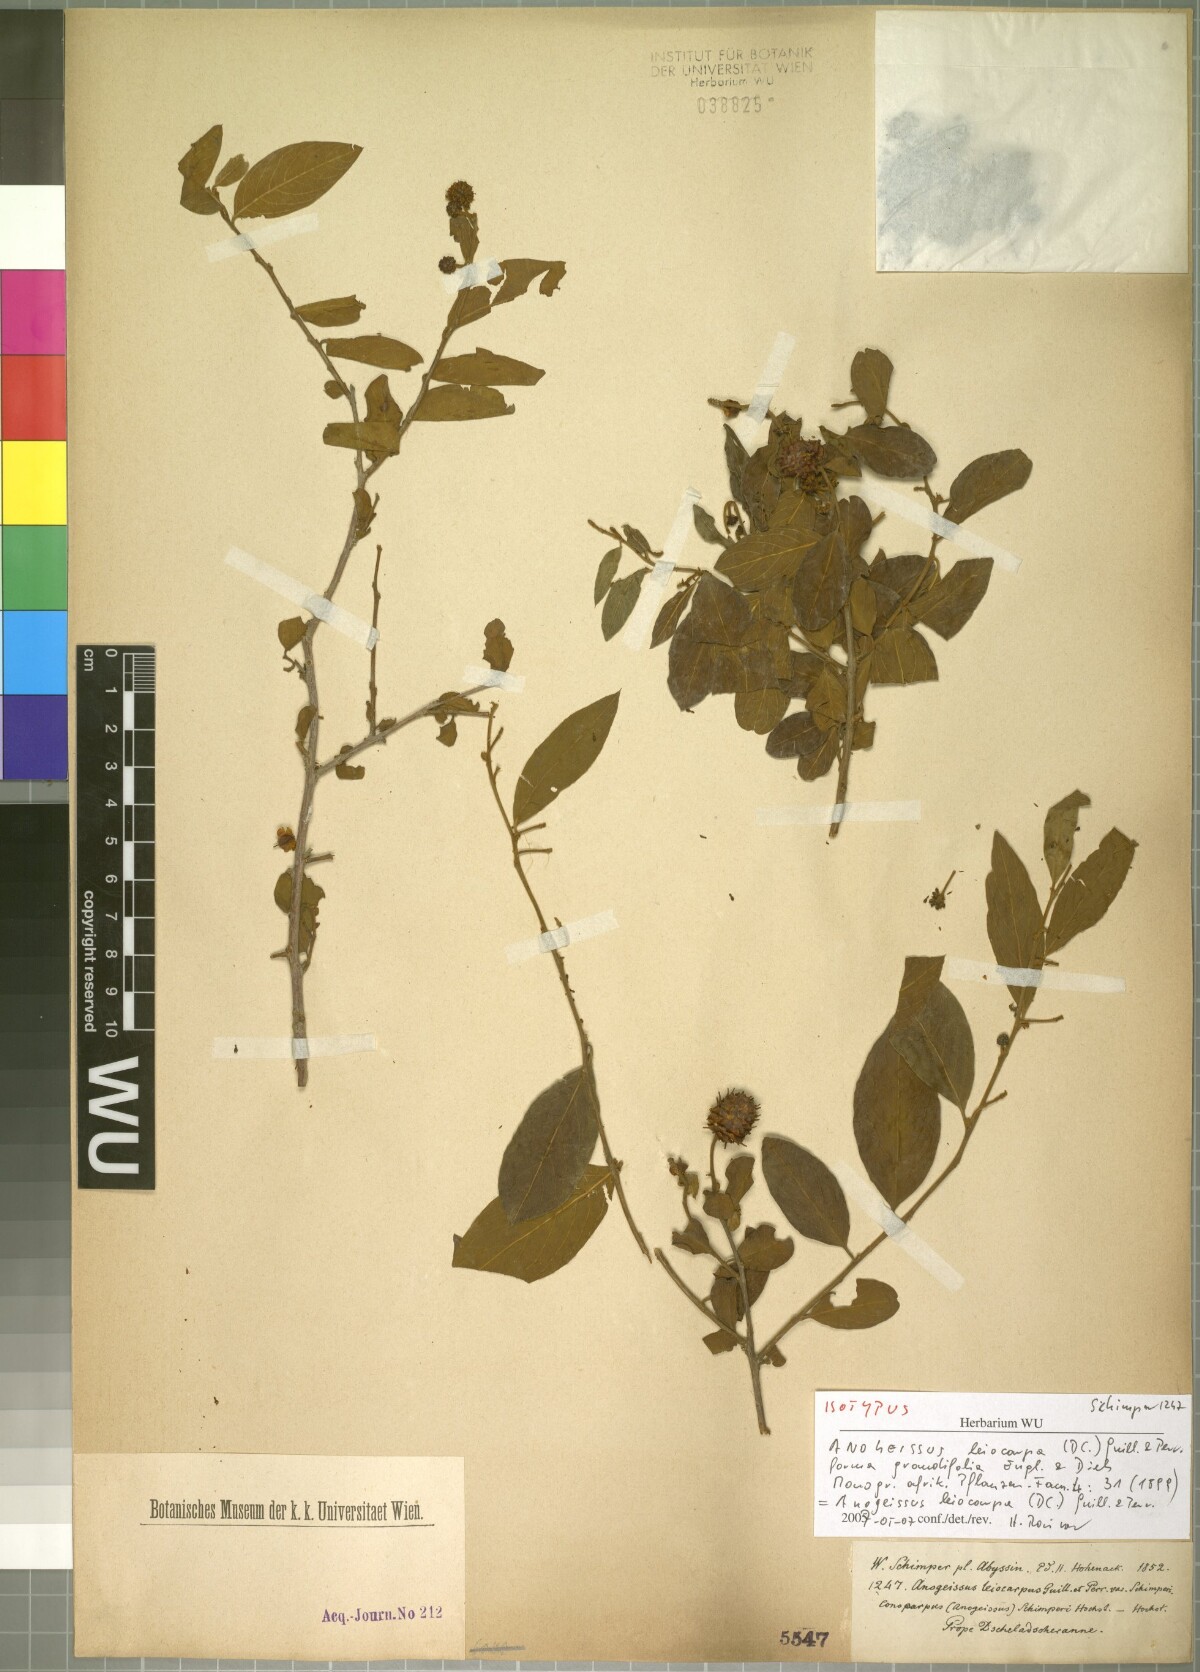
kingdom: Plantae
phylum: Tracheophyta
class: Magnoliopsida
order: Myrtales
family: Combretaceae
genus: Terminalia
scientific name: Terminalia leiocarpa
